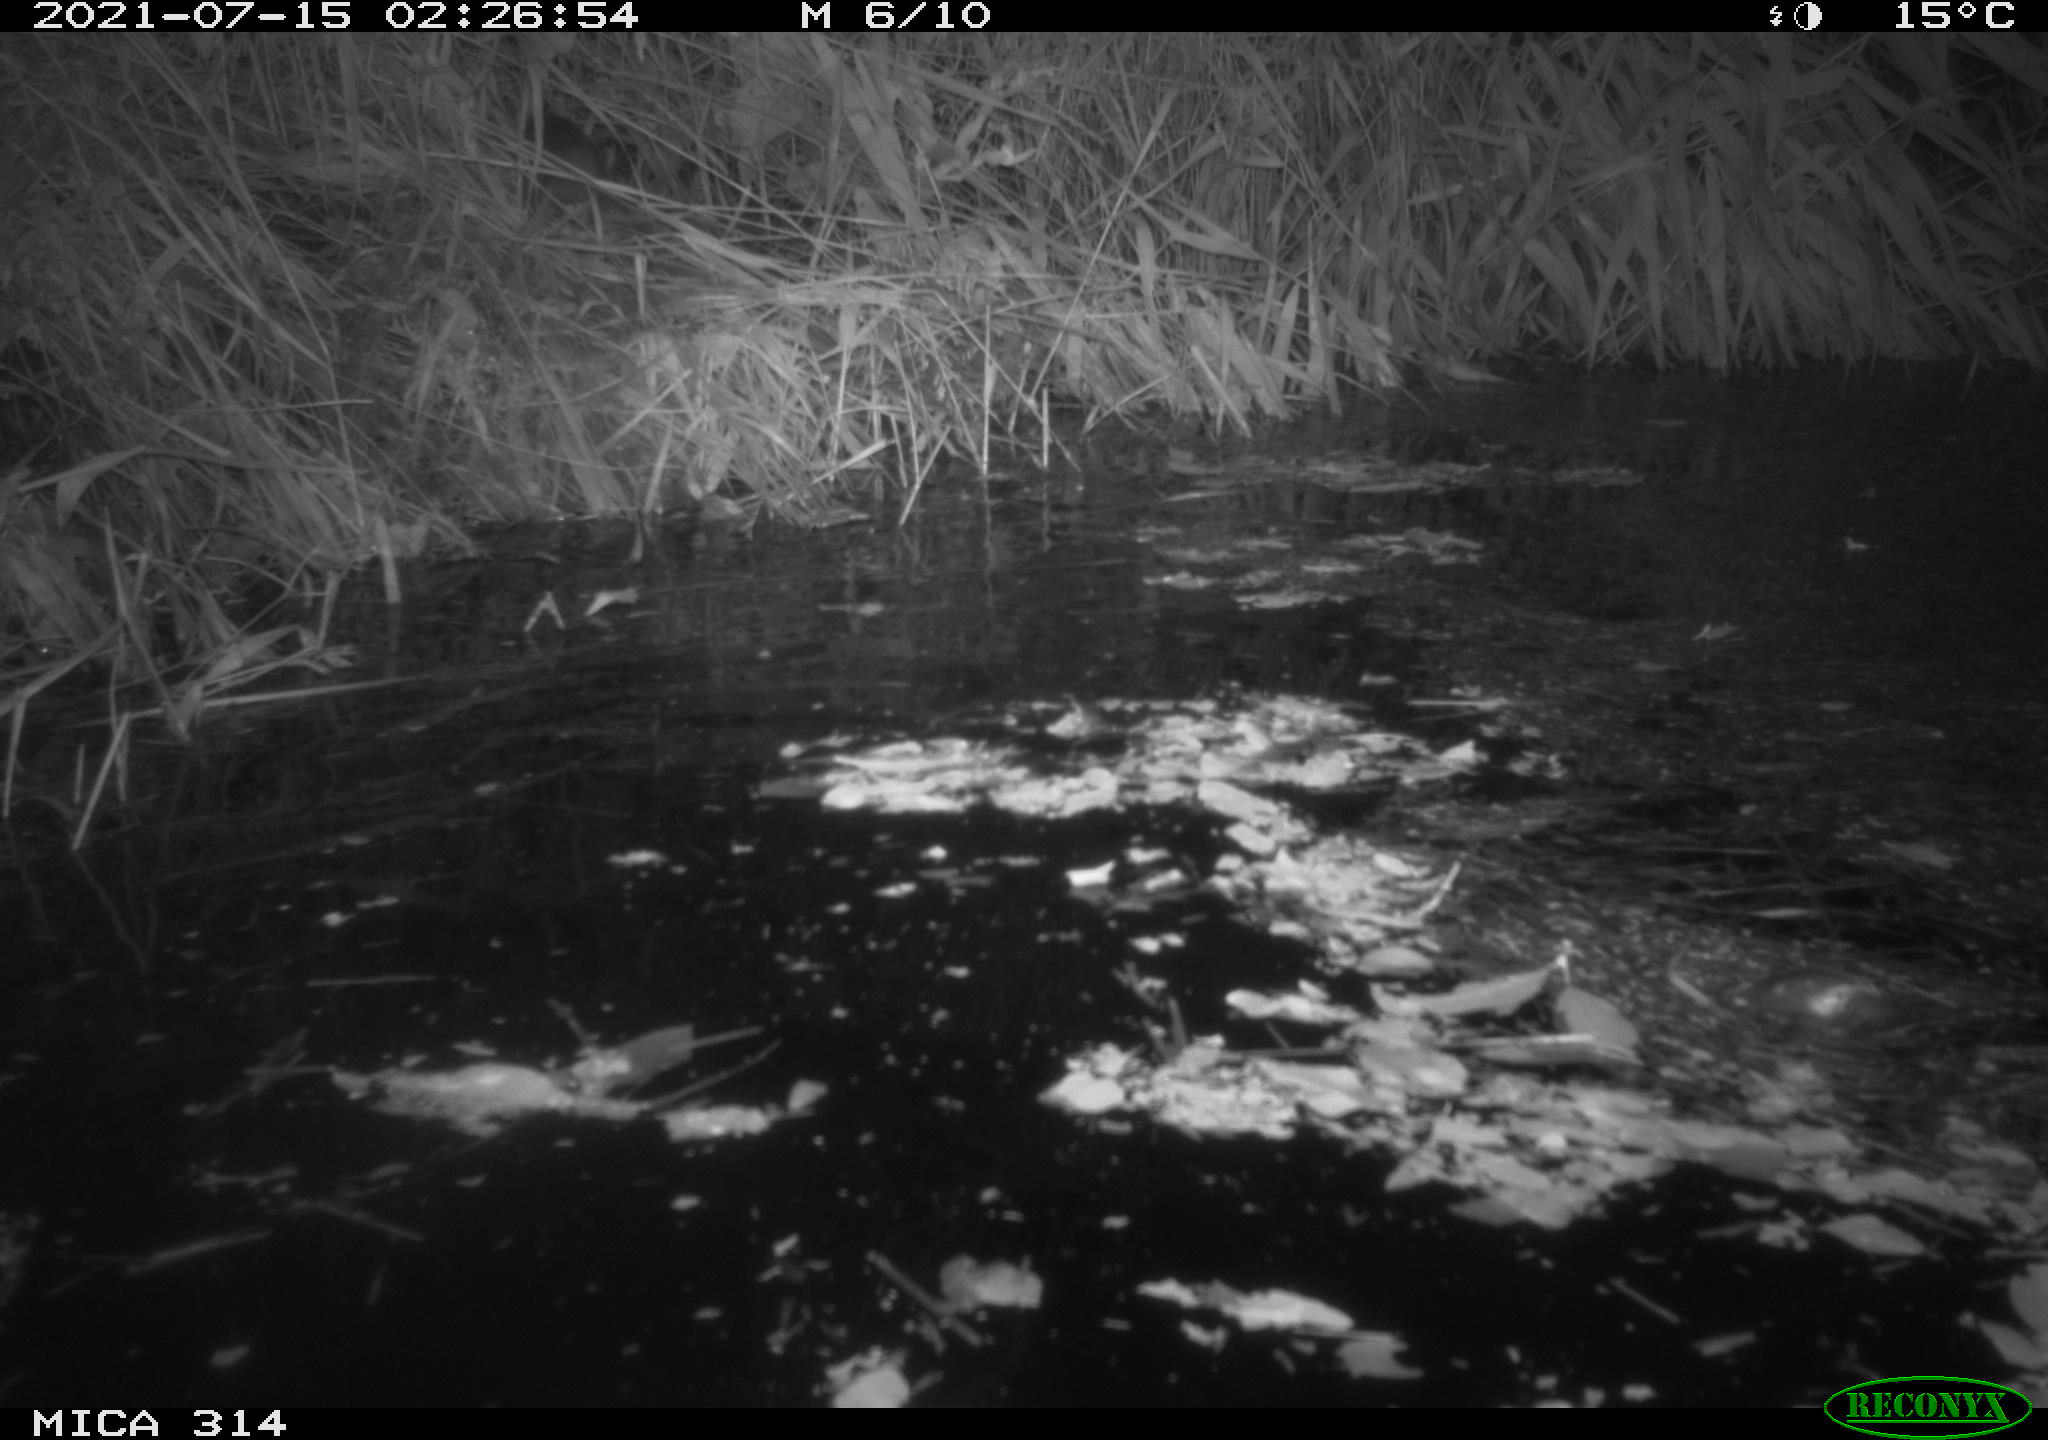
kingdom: Animalia
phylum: Chordata
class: Mammalia
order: Rodentia
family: Muridae
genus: Rattus
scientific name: Rattus norvegicus
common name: Brown rat
